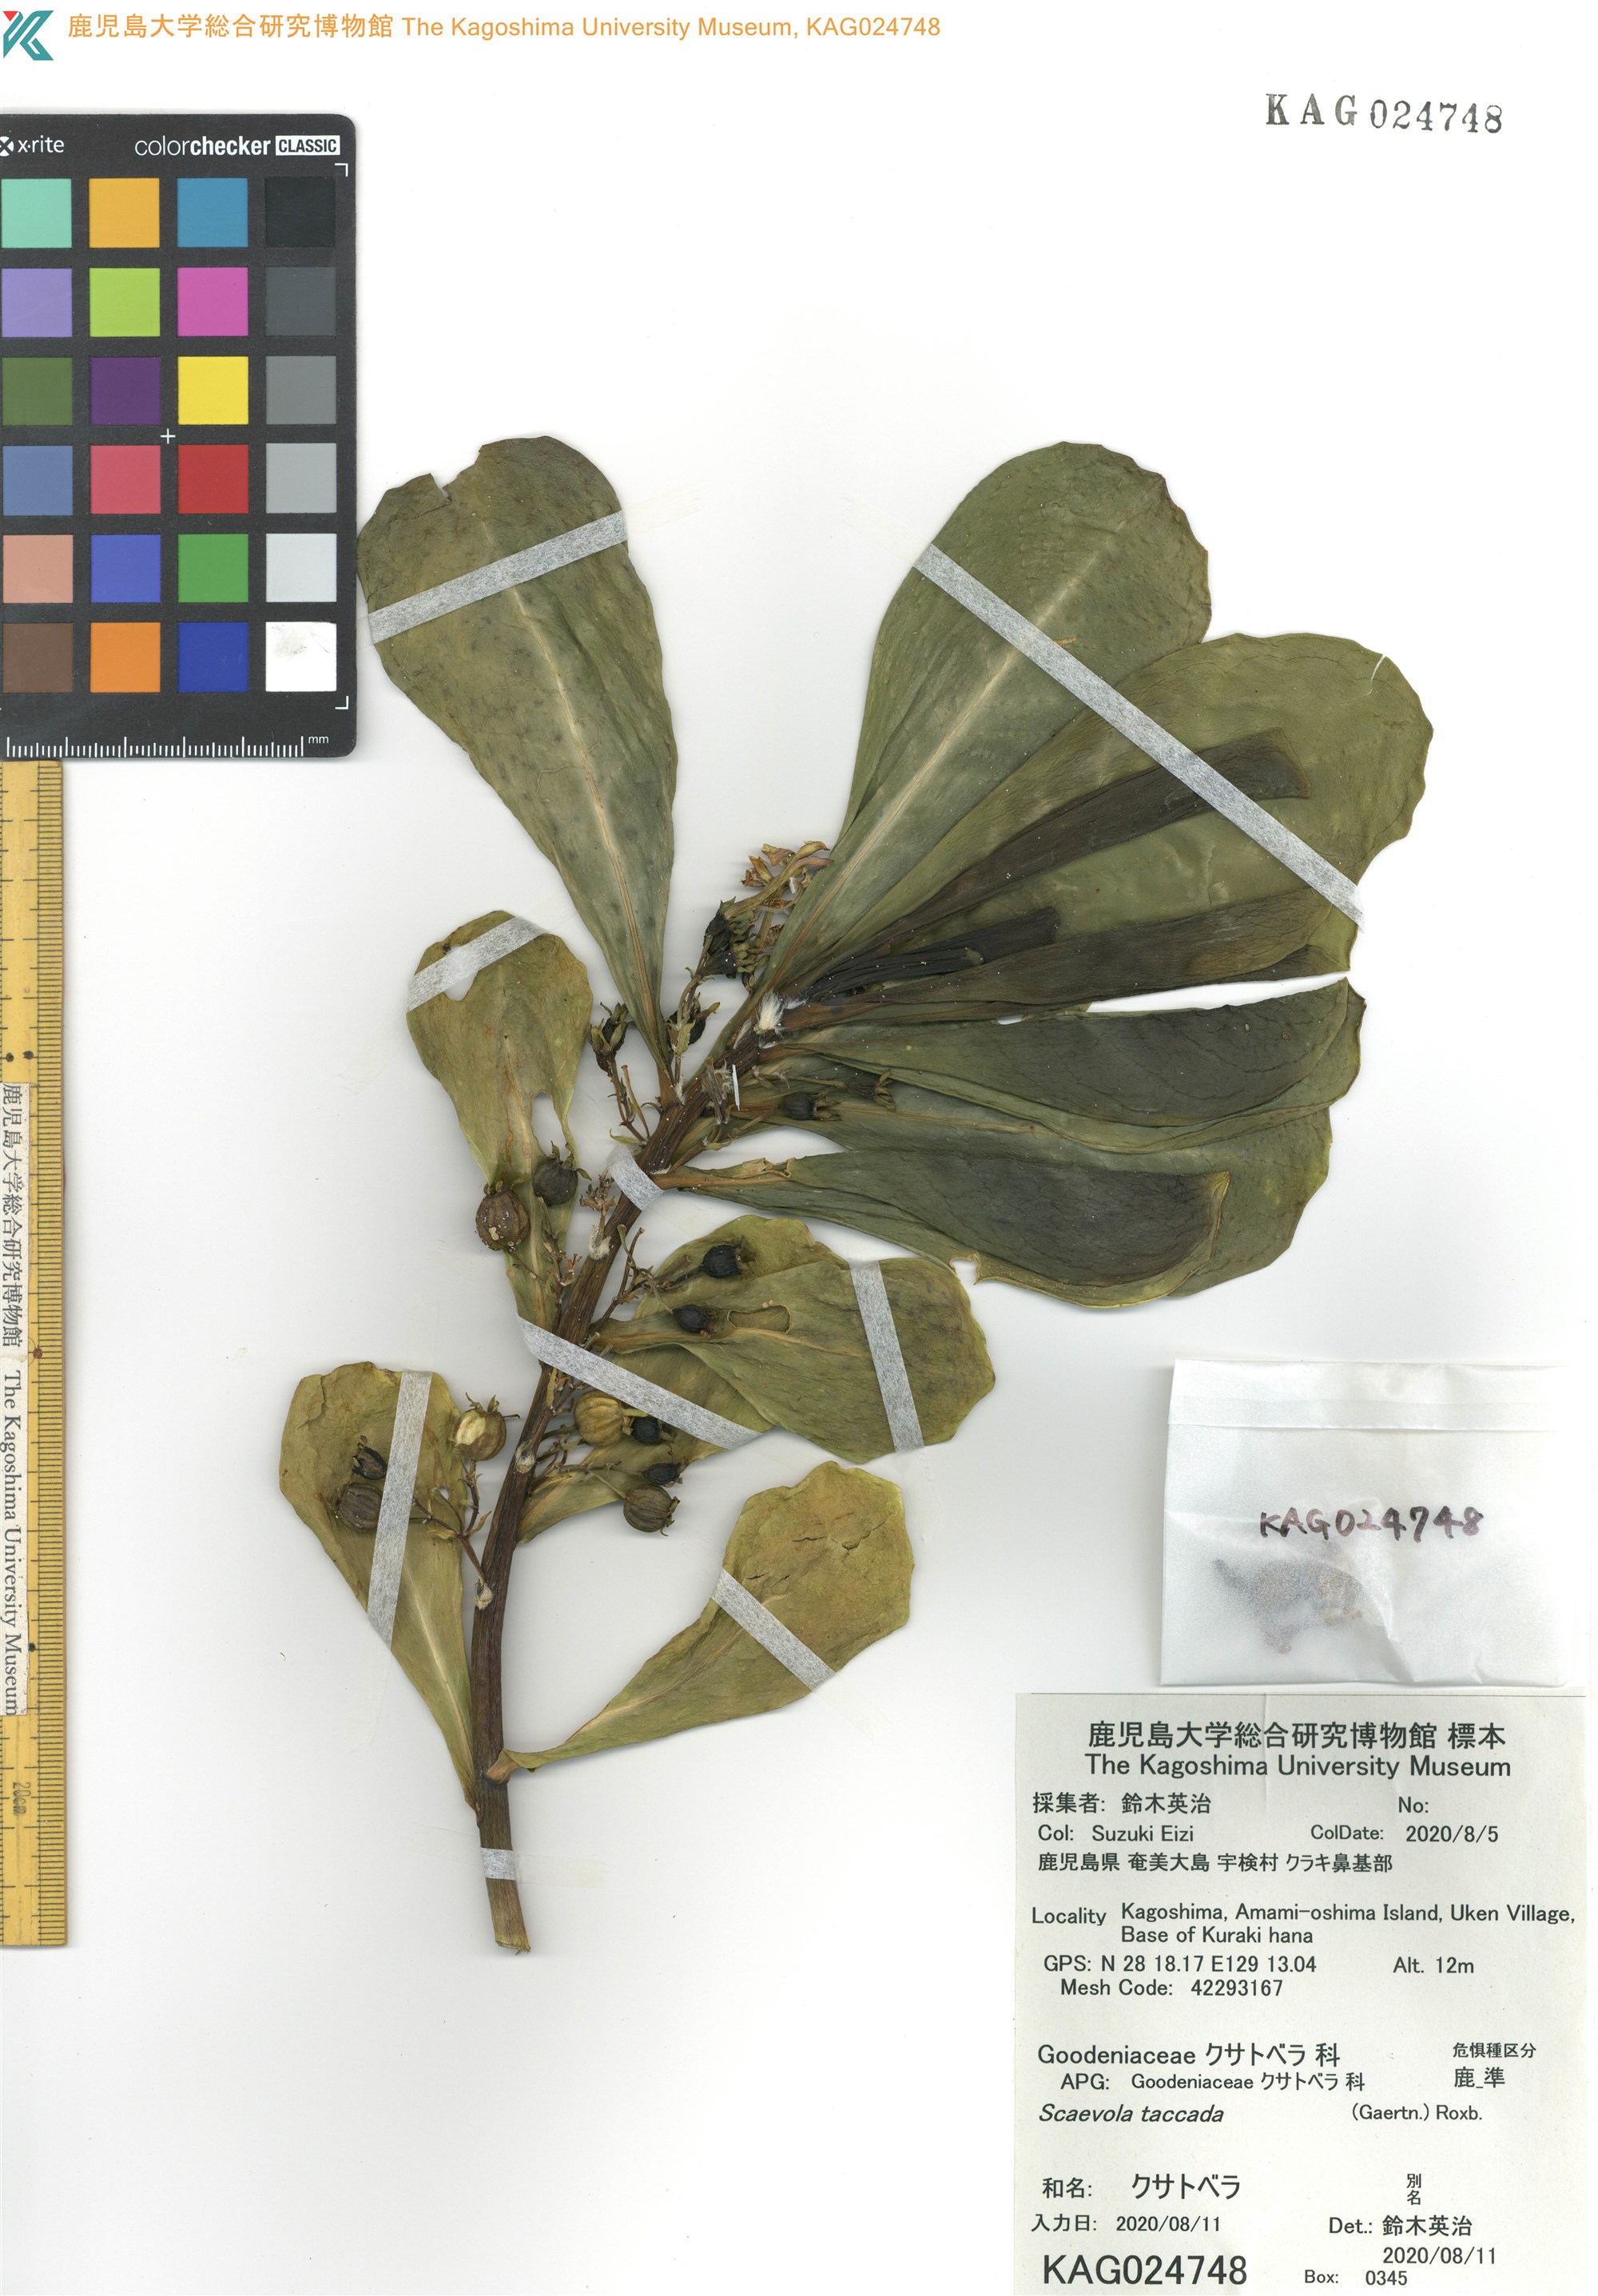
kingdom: Plantae
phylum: Tracheophyta
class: Magnoliopsida
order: Asterales
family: Goodeniaceae
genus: Scaevola
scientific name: Scaevola taccada
